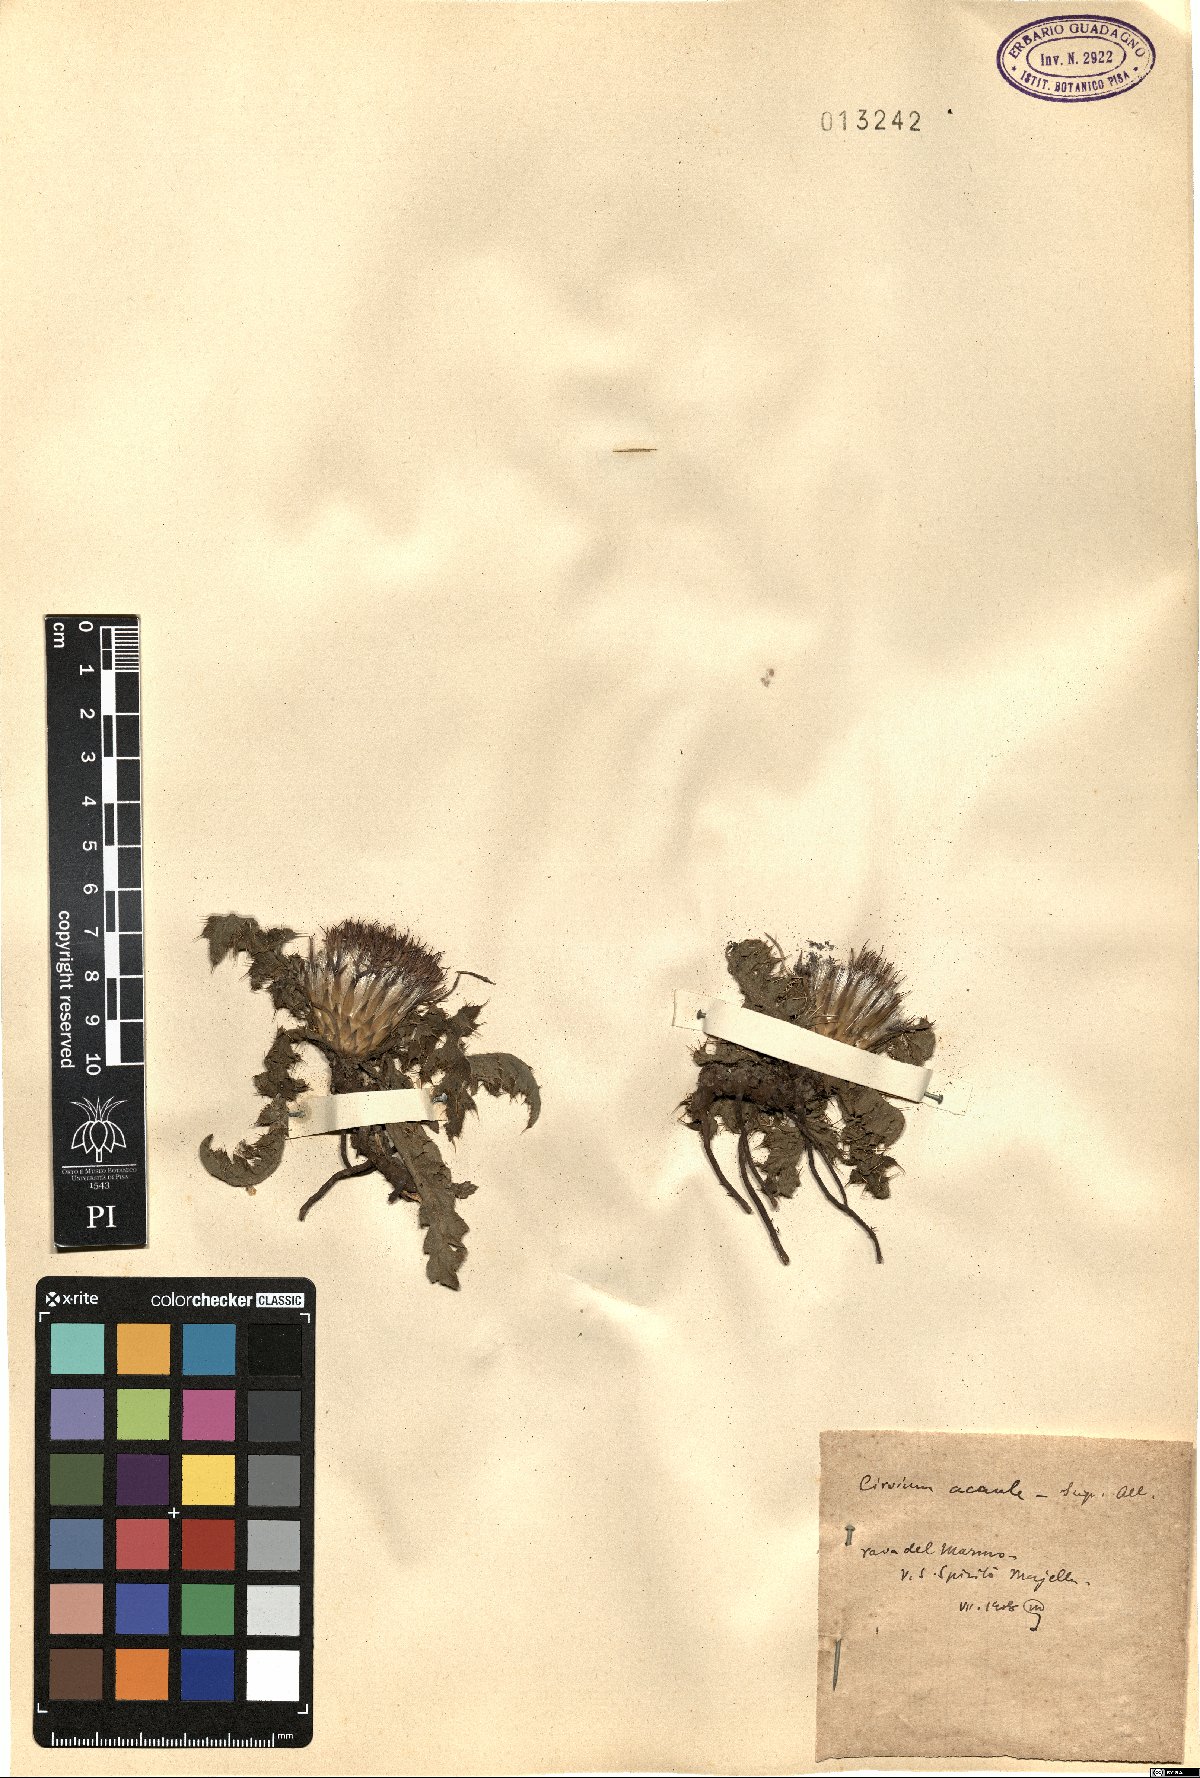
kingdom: Plantae
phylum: Tracheophyta
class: Magnoliopsida
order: Asterales
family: Asteraceae
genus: Cirsium
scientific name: Cirsium acaule
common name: Dwarf thistle
